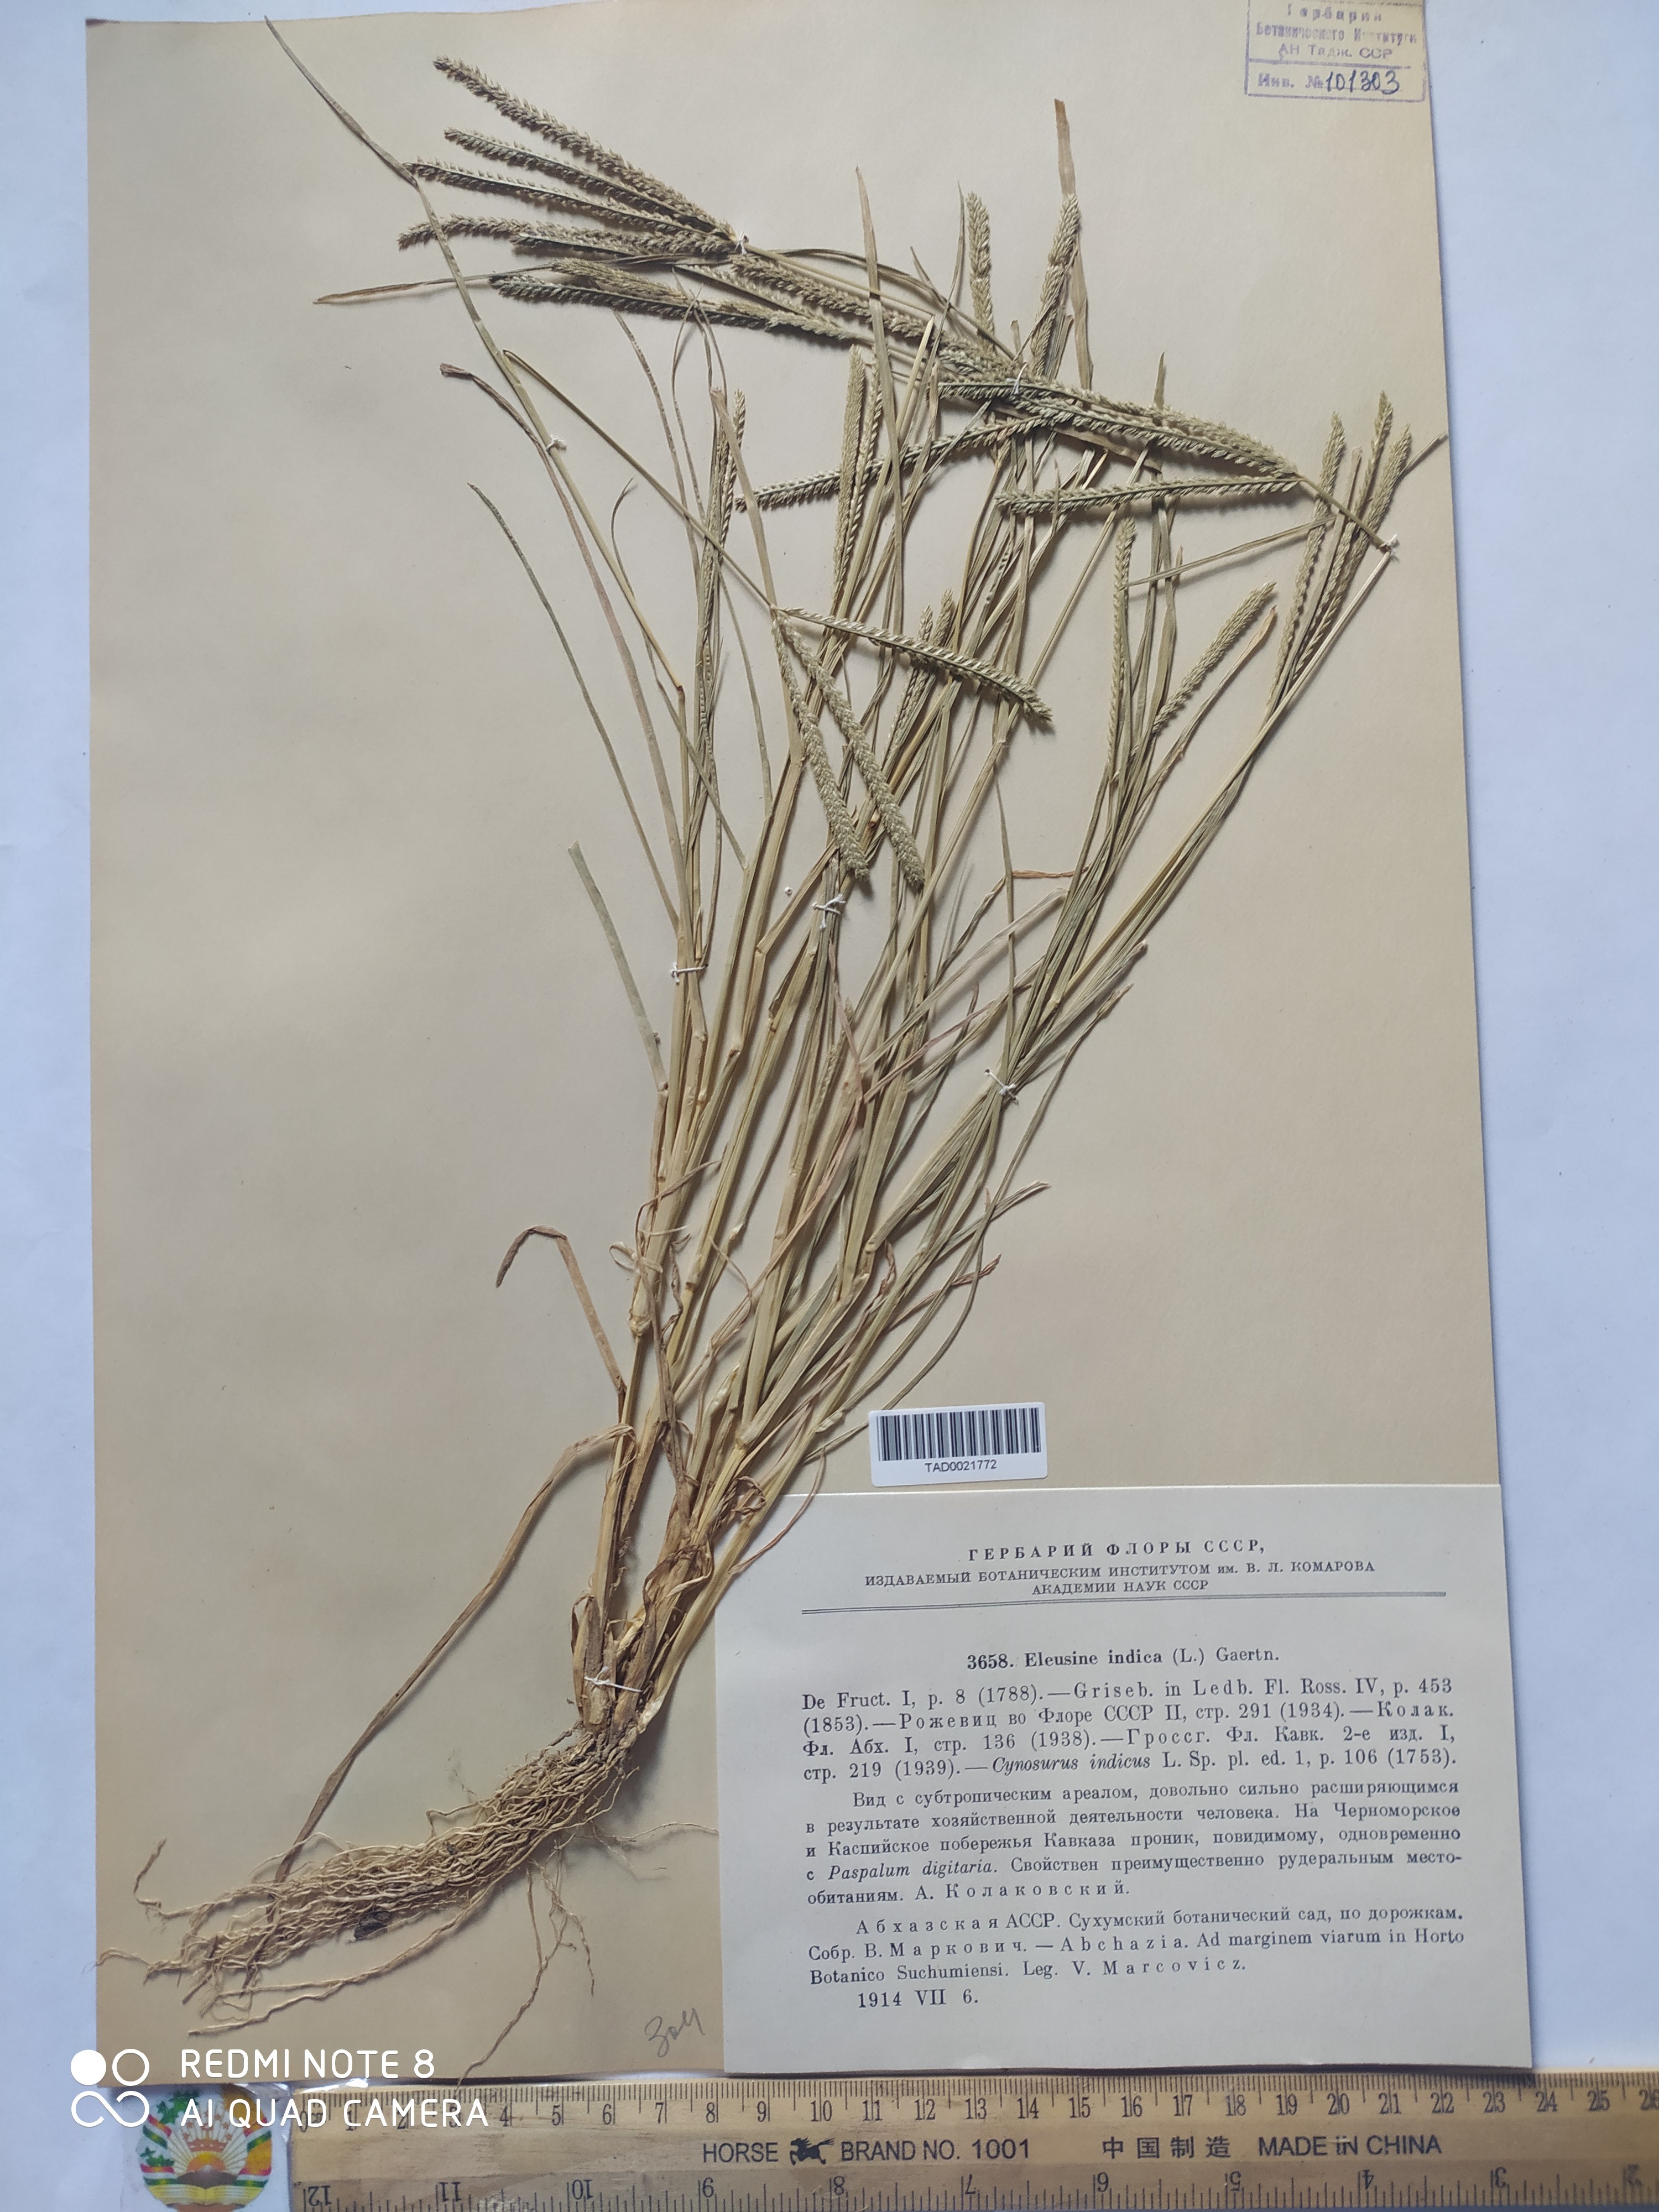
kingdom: Plantae
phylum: Tracheophyta
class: Liliopsida
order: Poales
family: Poaceae
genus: Eleusine
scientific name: Eleusine indica
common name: Yard-grass
